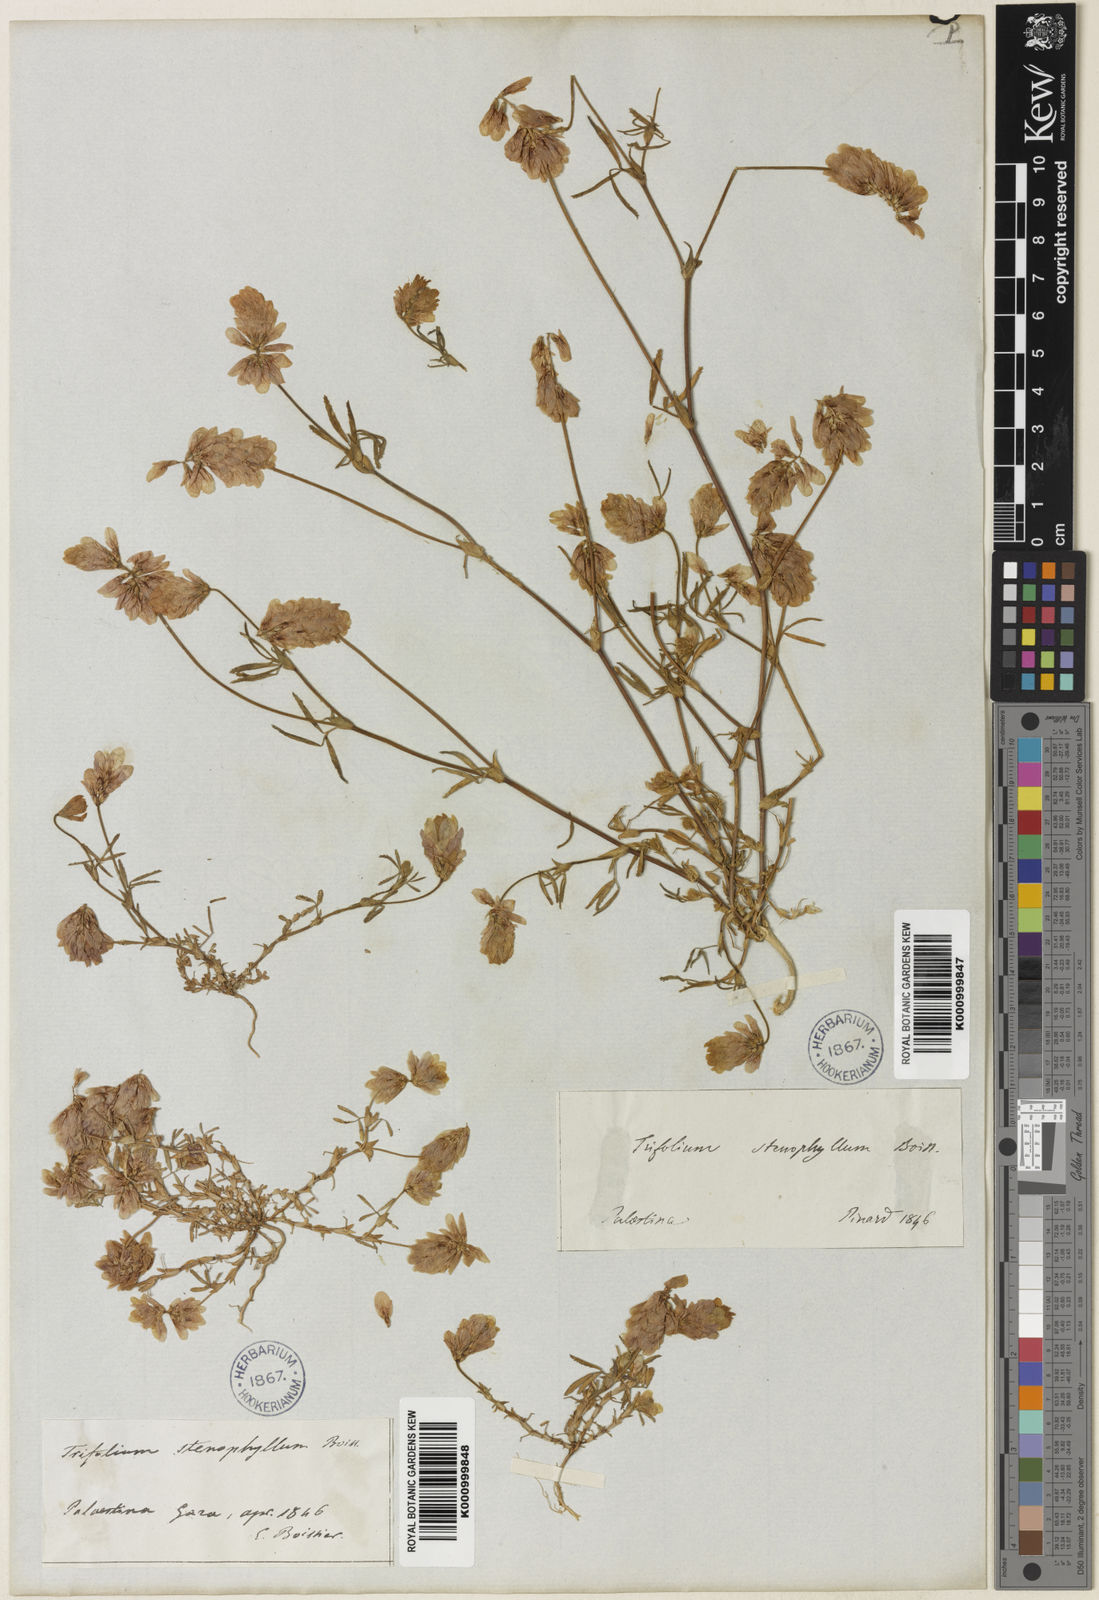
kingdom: Plantae
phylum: Tracheophyta
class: Magnoliopsida
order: Fabales
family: Fabaceae
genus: Trifolium
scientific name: Trifolium philistaeum
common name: Palestine clover
